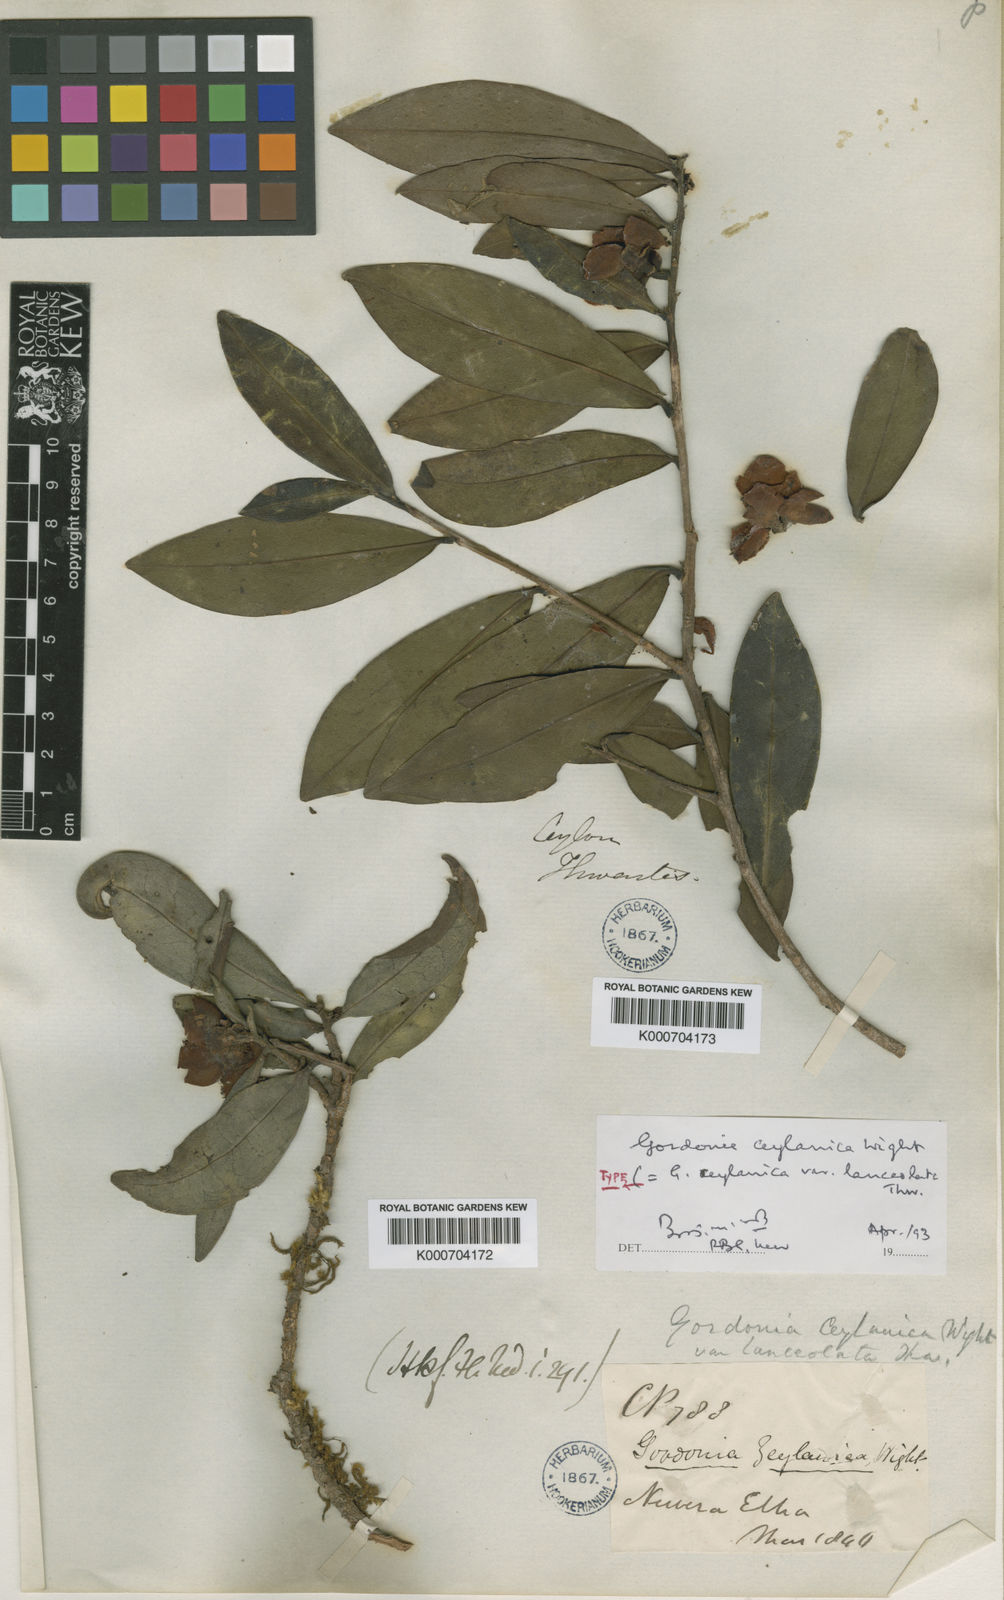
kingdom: Plantae
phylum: Tracheophyta
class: Magnoliopsida
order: Ericales
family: Theaceae
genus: Gordonia
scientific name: Gordonia
